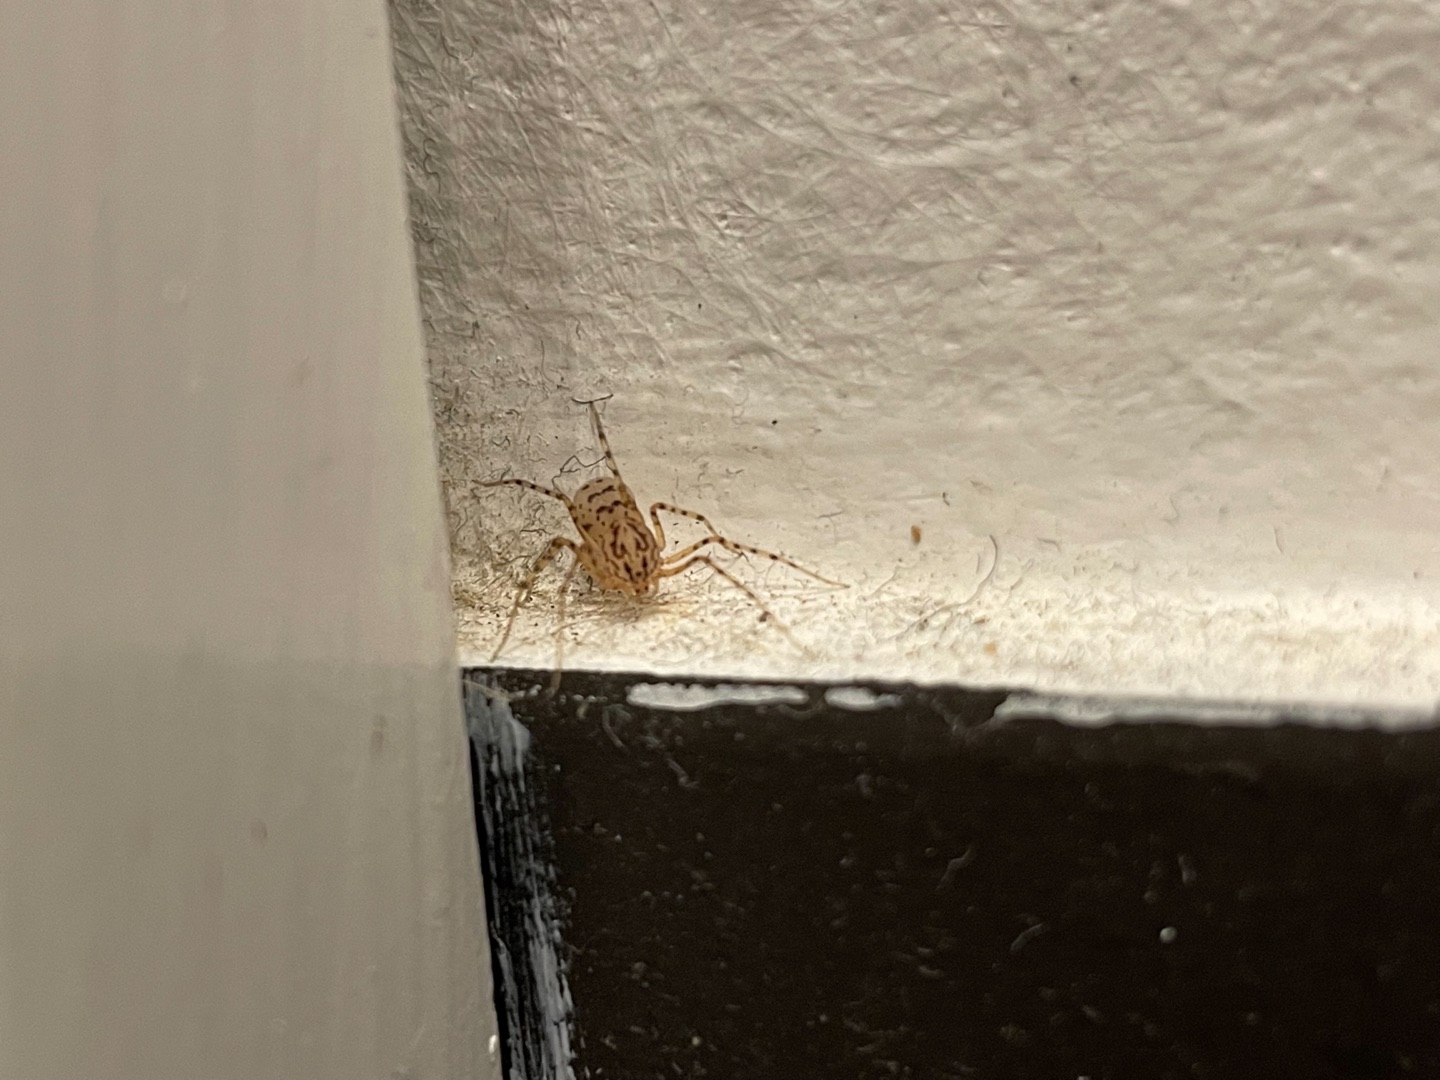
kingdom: Animalia
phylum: Arthropoda
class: Arachnida
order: Araneae
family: Scytodidae
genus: Scytodes
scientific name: Scytodes thoracica
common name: Spytteedderkop
